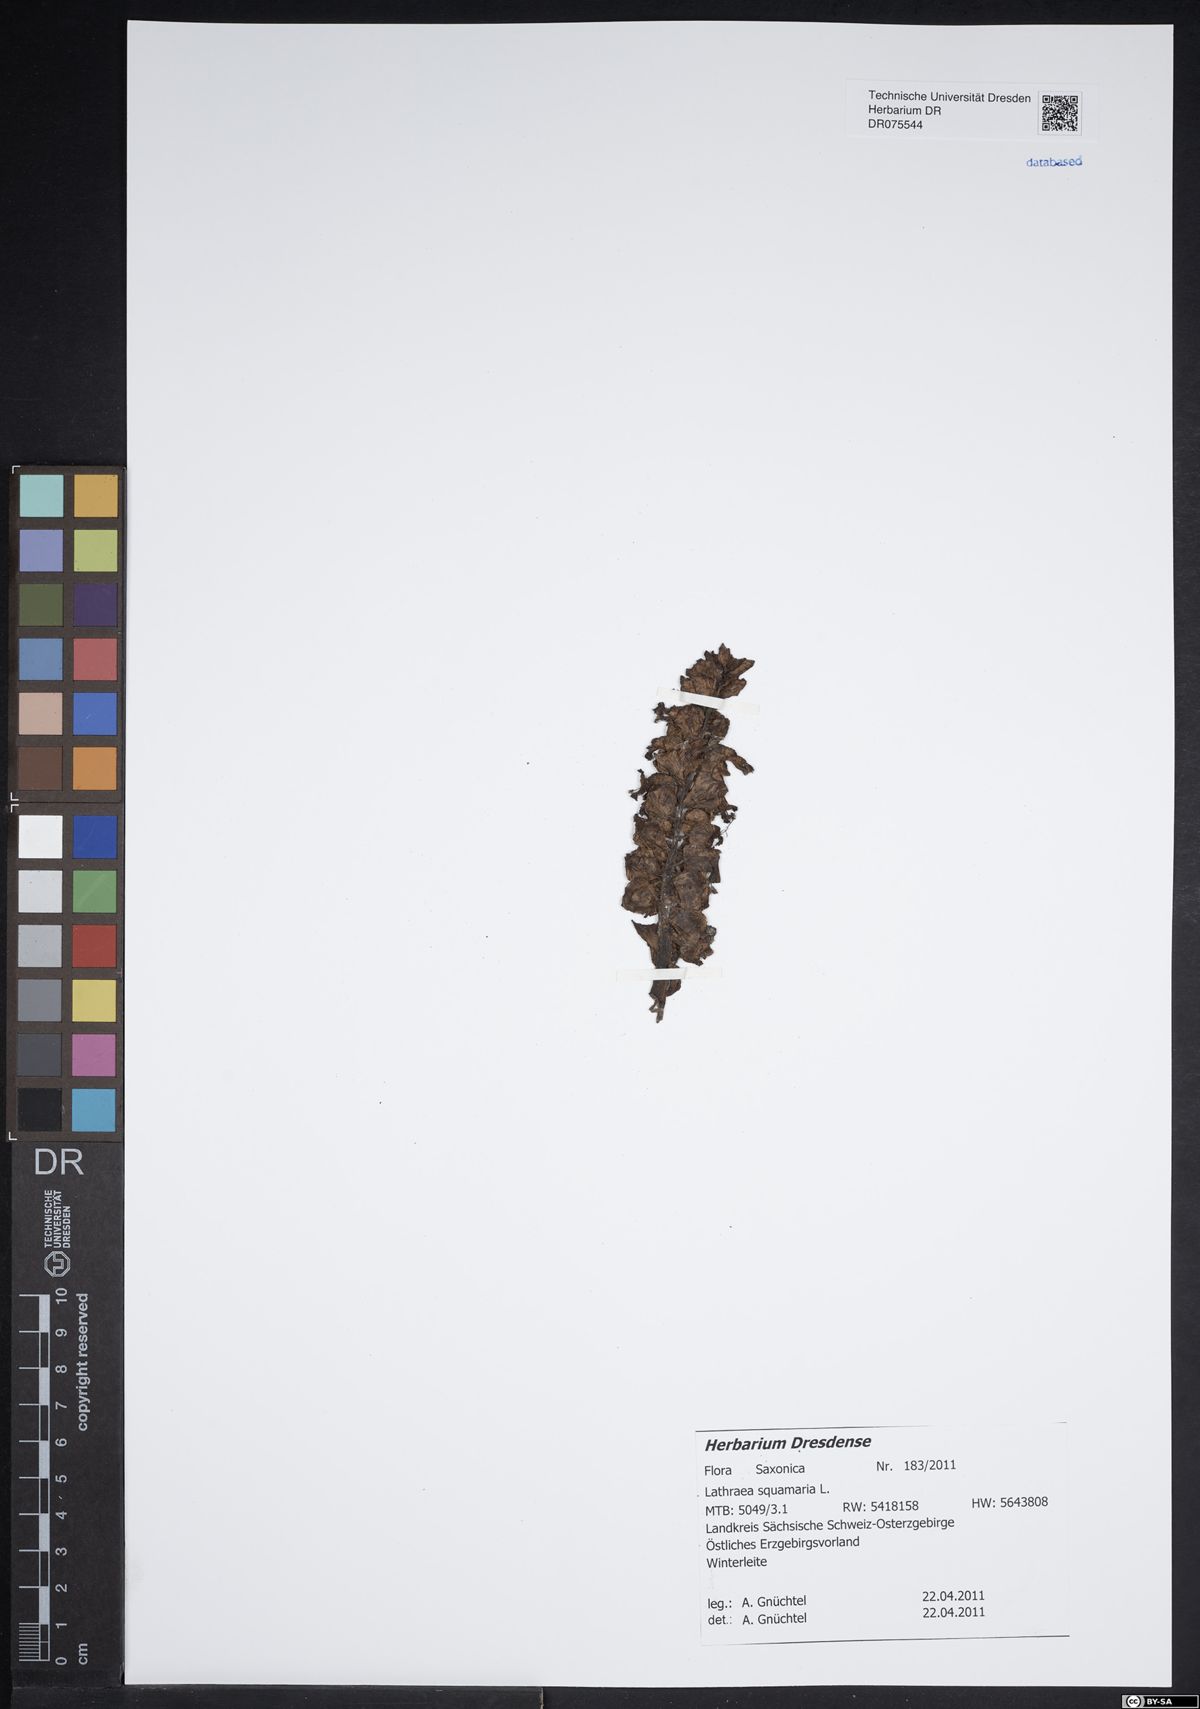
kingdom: Plantae
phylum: Tracheophyta
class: Magnoliopsida
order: Lamiales
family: Orobanchaceae
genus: Lathraea
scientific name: Lathraea squamaria
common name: Toothwort
